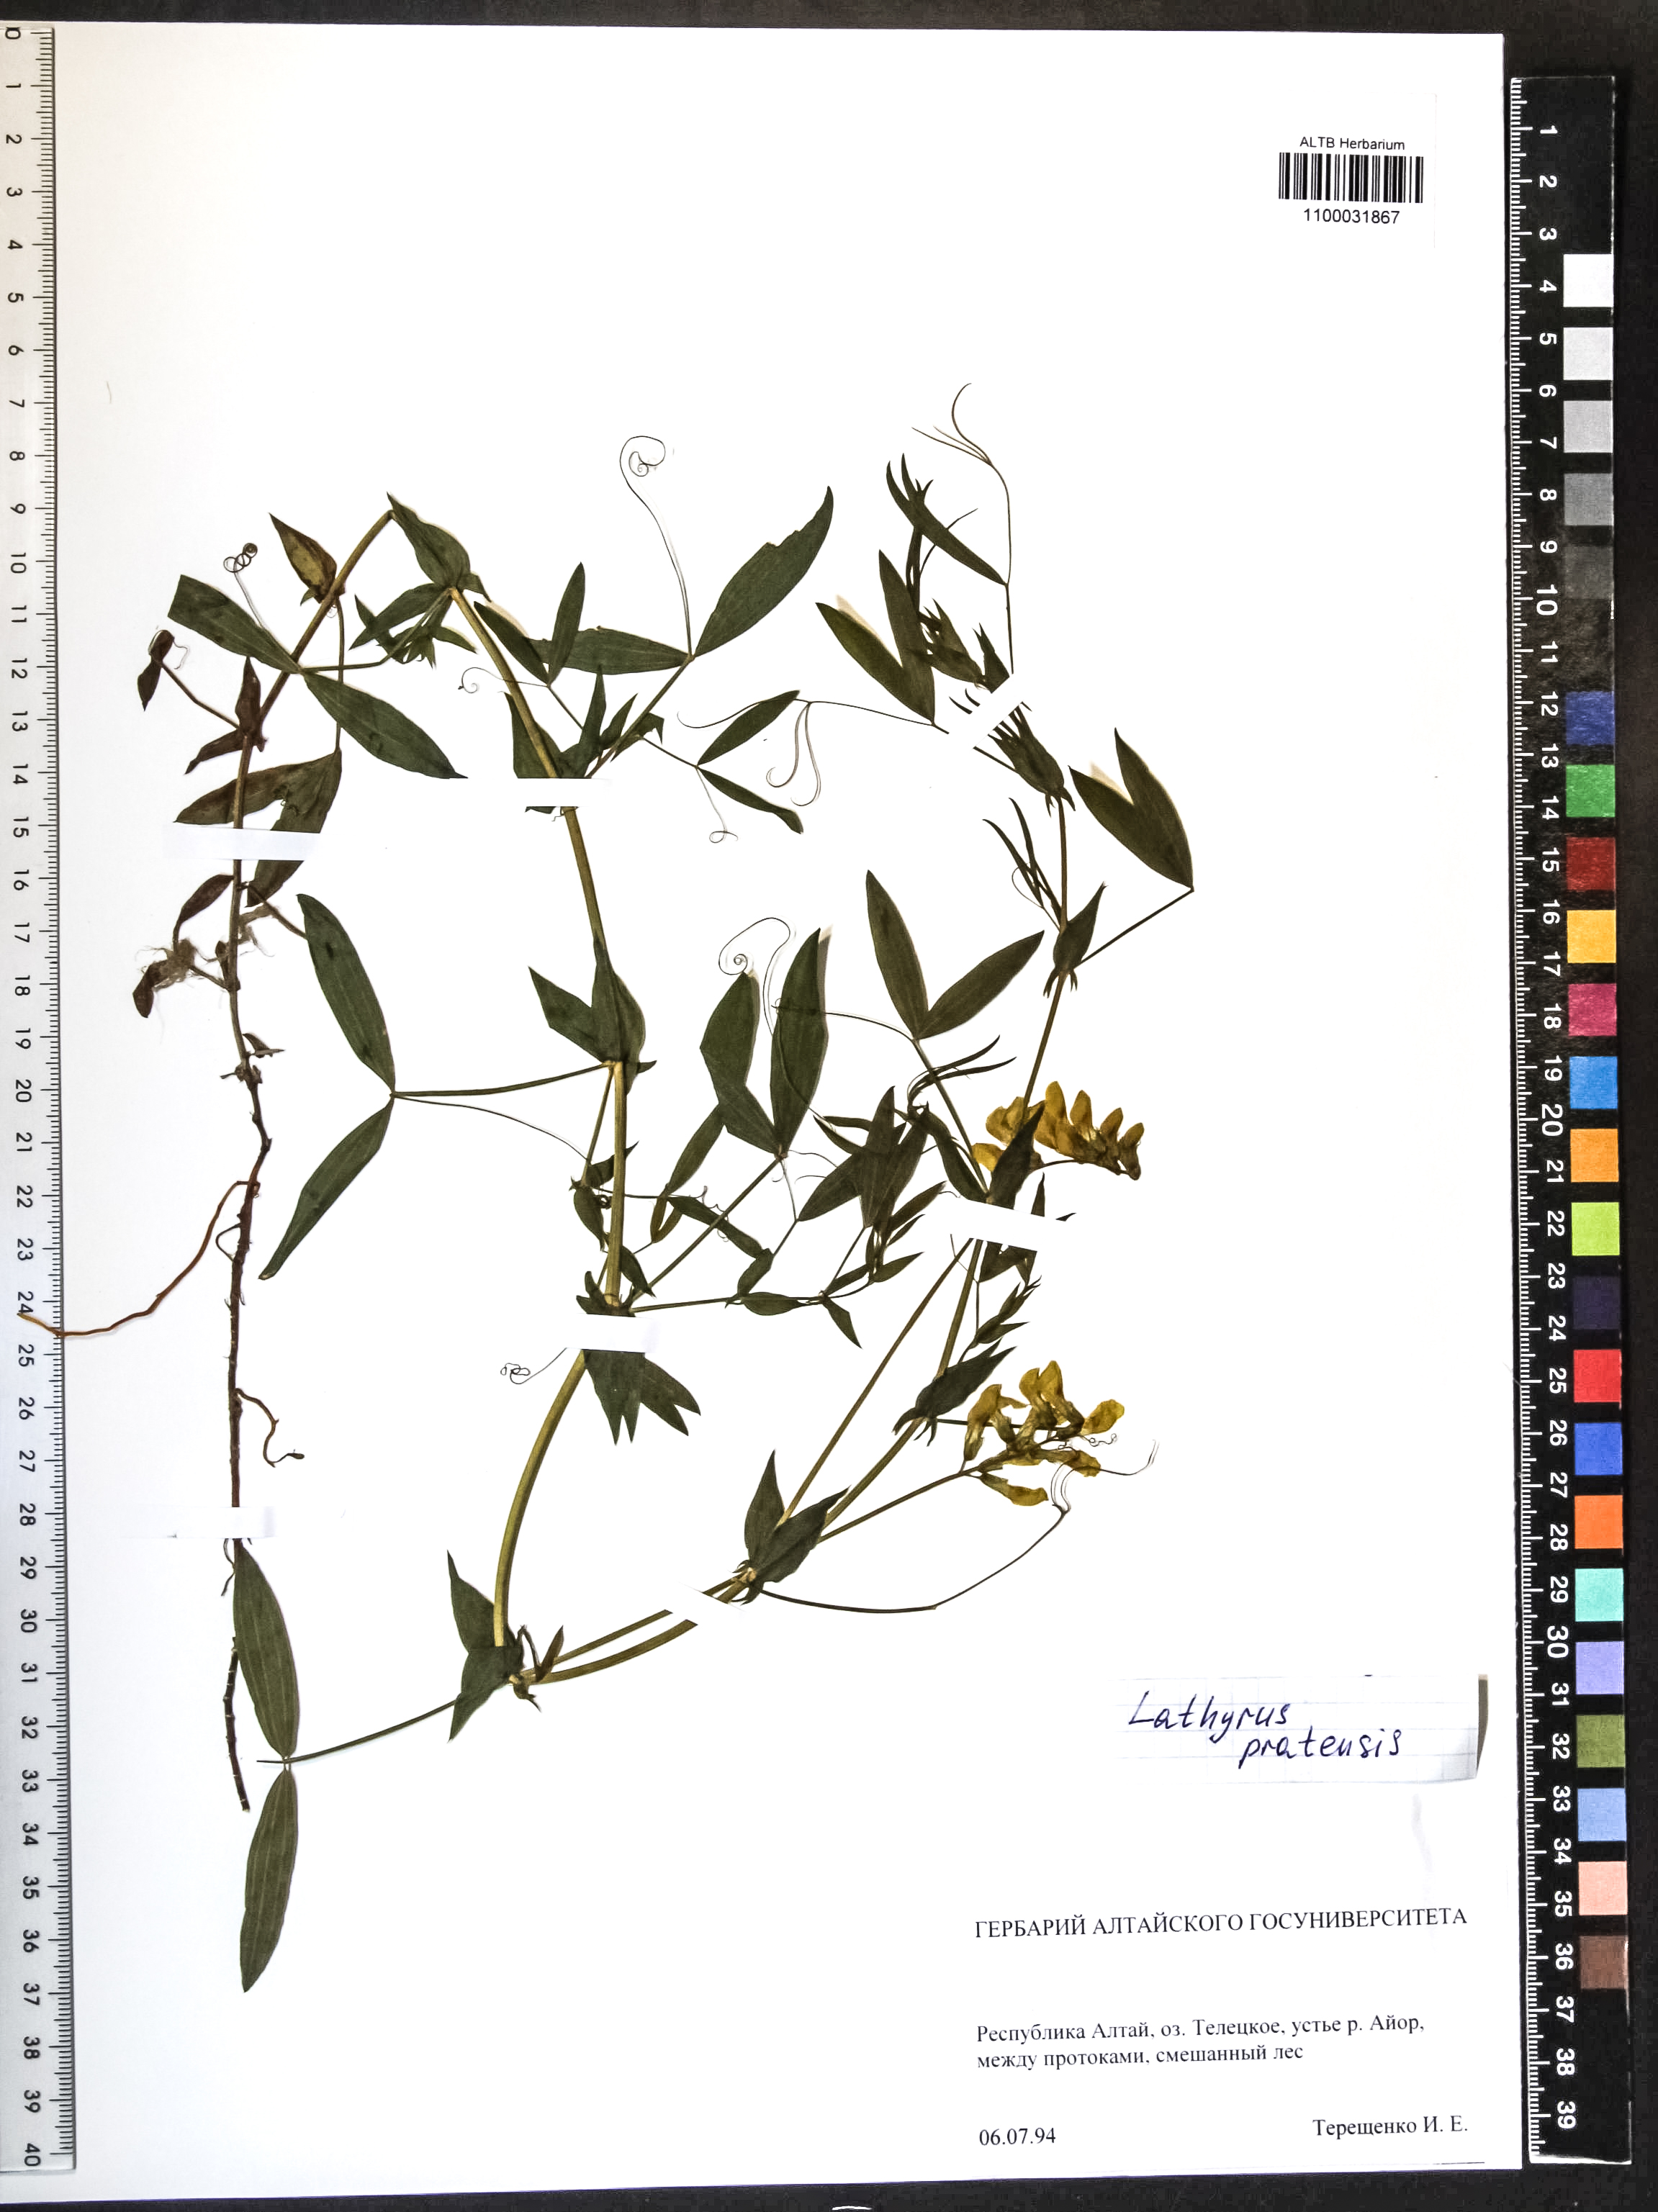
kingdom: Plantae
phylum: Tracheophyta
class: Magnoliopsida
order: Fabales
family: Fabaceae
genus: Lathyrus
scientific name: Lathyrus pratensis
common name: Meadow vetchling
